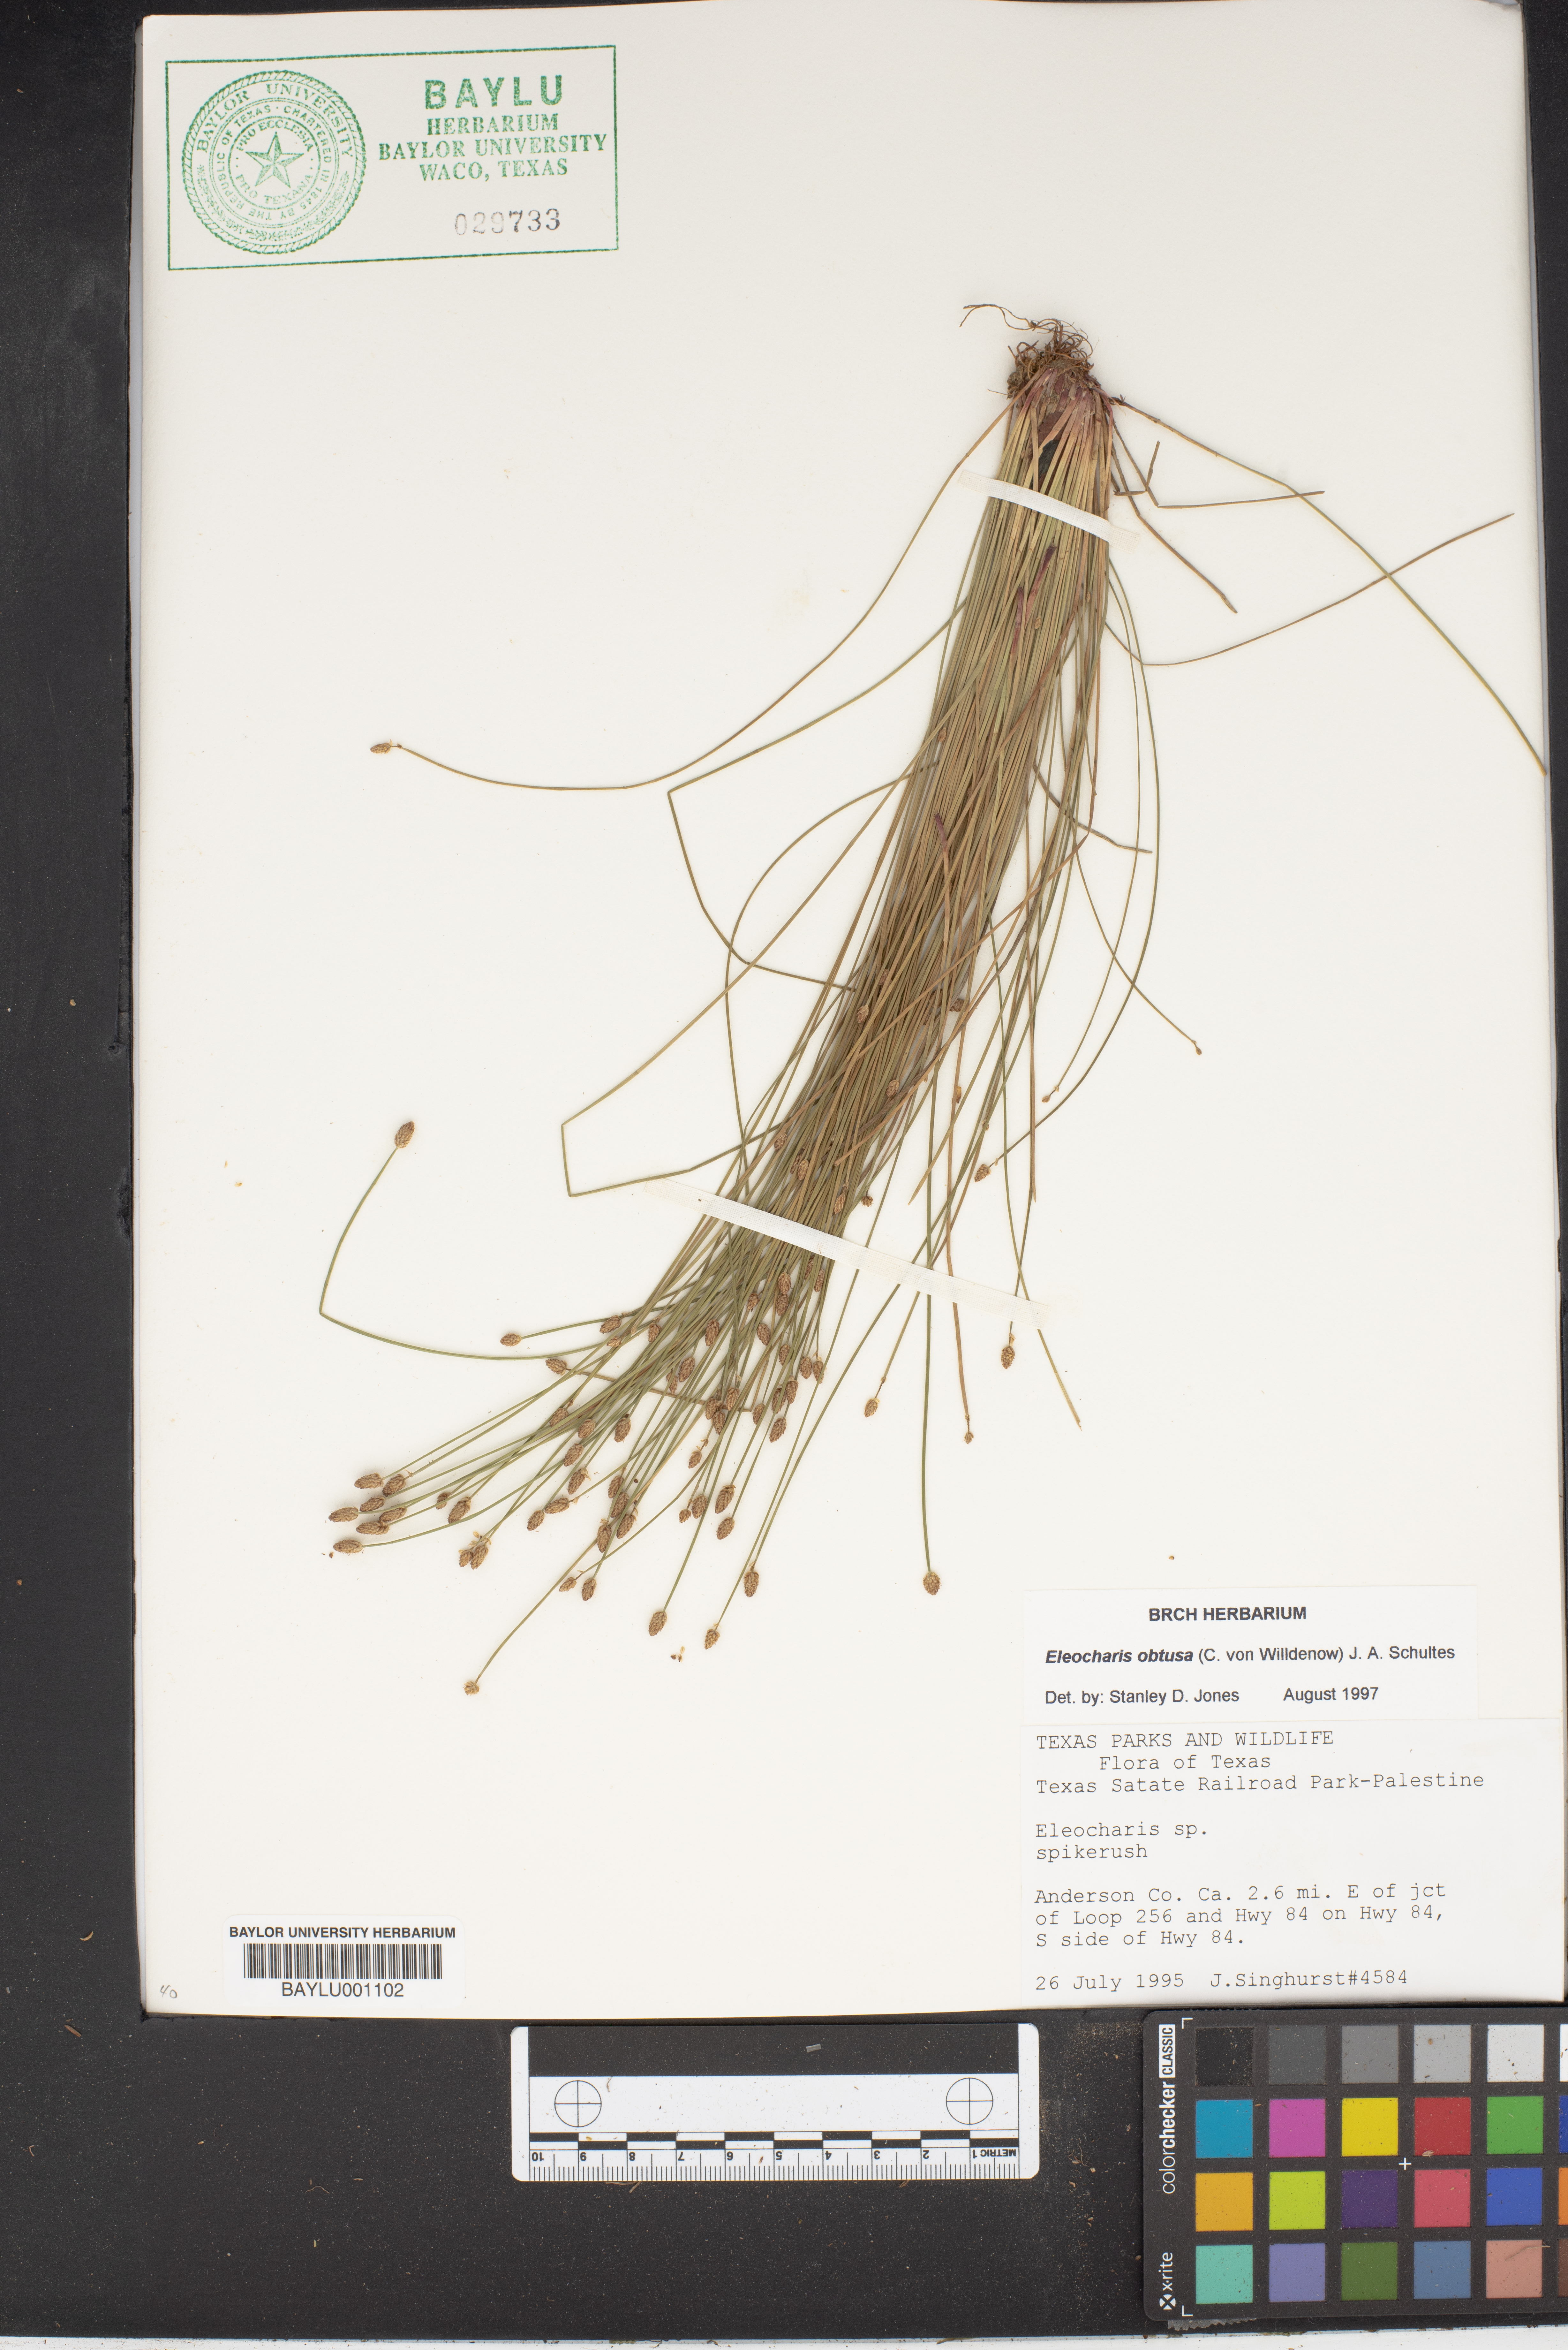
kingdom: Plantae
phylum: Tracheophyta
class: Liliopsida
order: Poales
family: Cyperaceae
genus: Eleocharis
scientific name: Eleocharis
